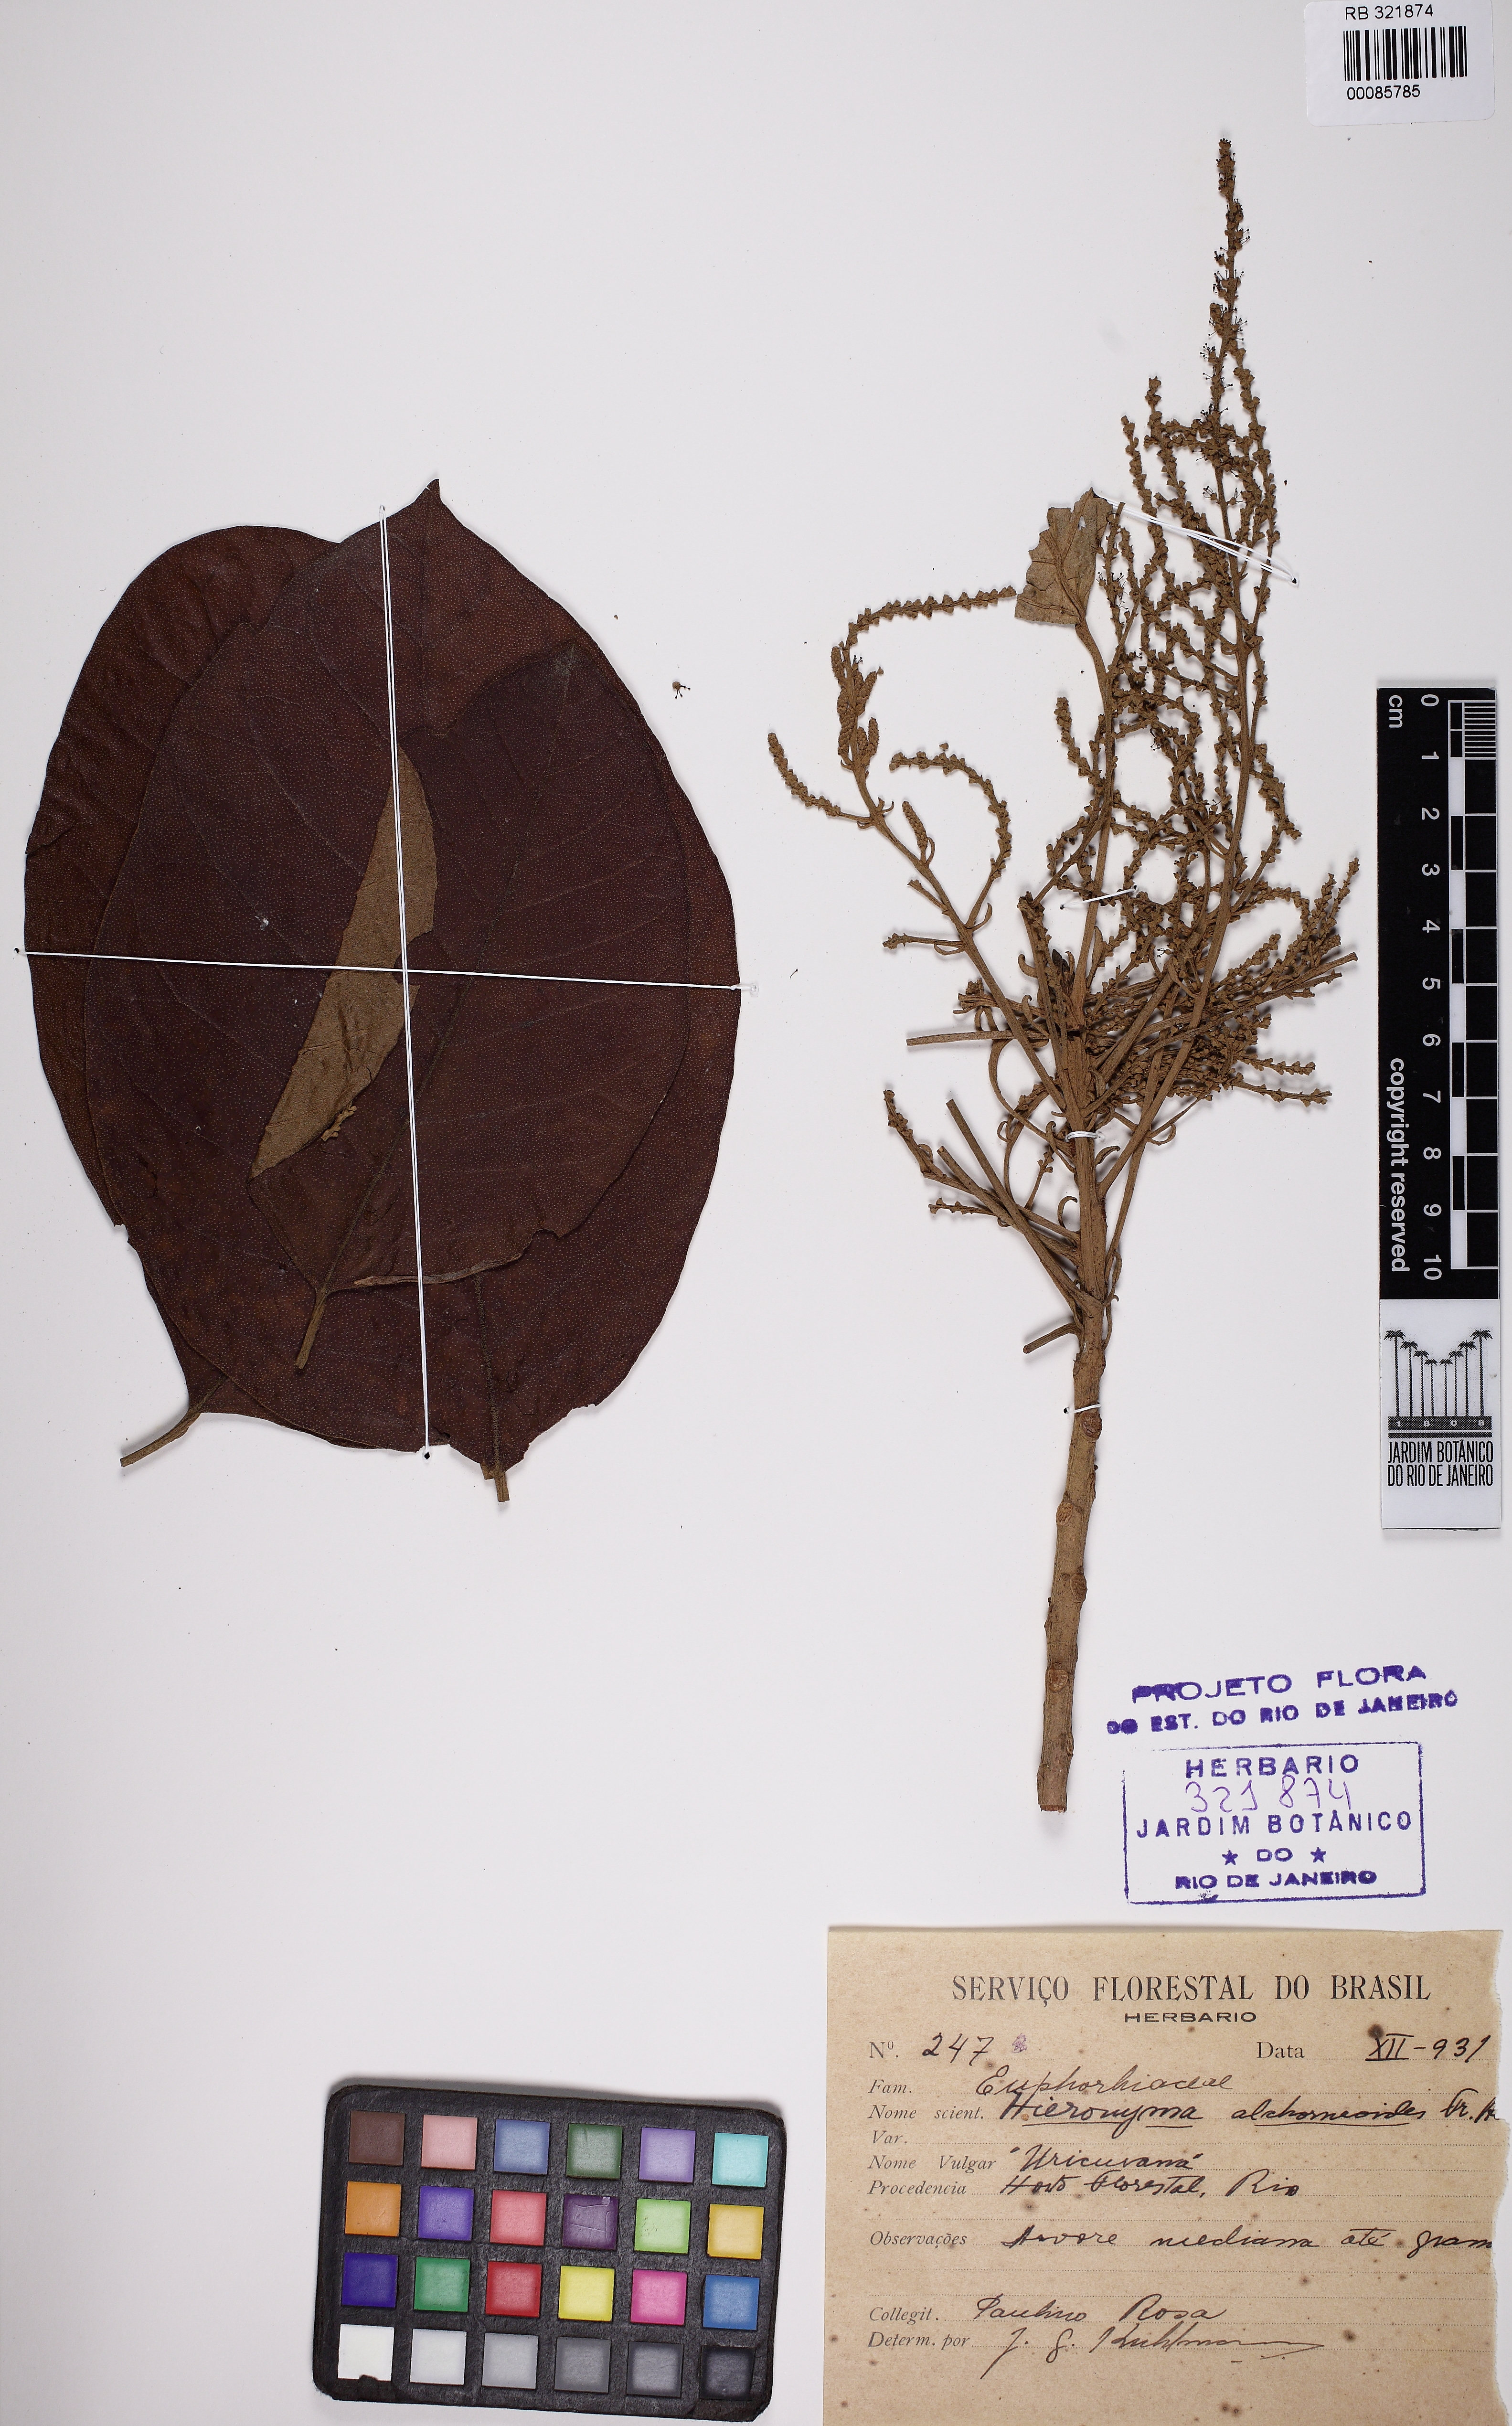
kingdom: Plantae
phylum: Tracheophyta
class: Magnoliopsida
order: Malpighiales
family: Phyllanthaceae
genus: Hieronyma
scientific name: Hieronyma alchorneoides
